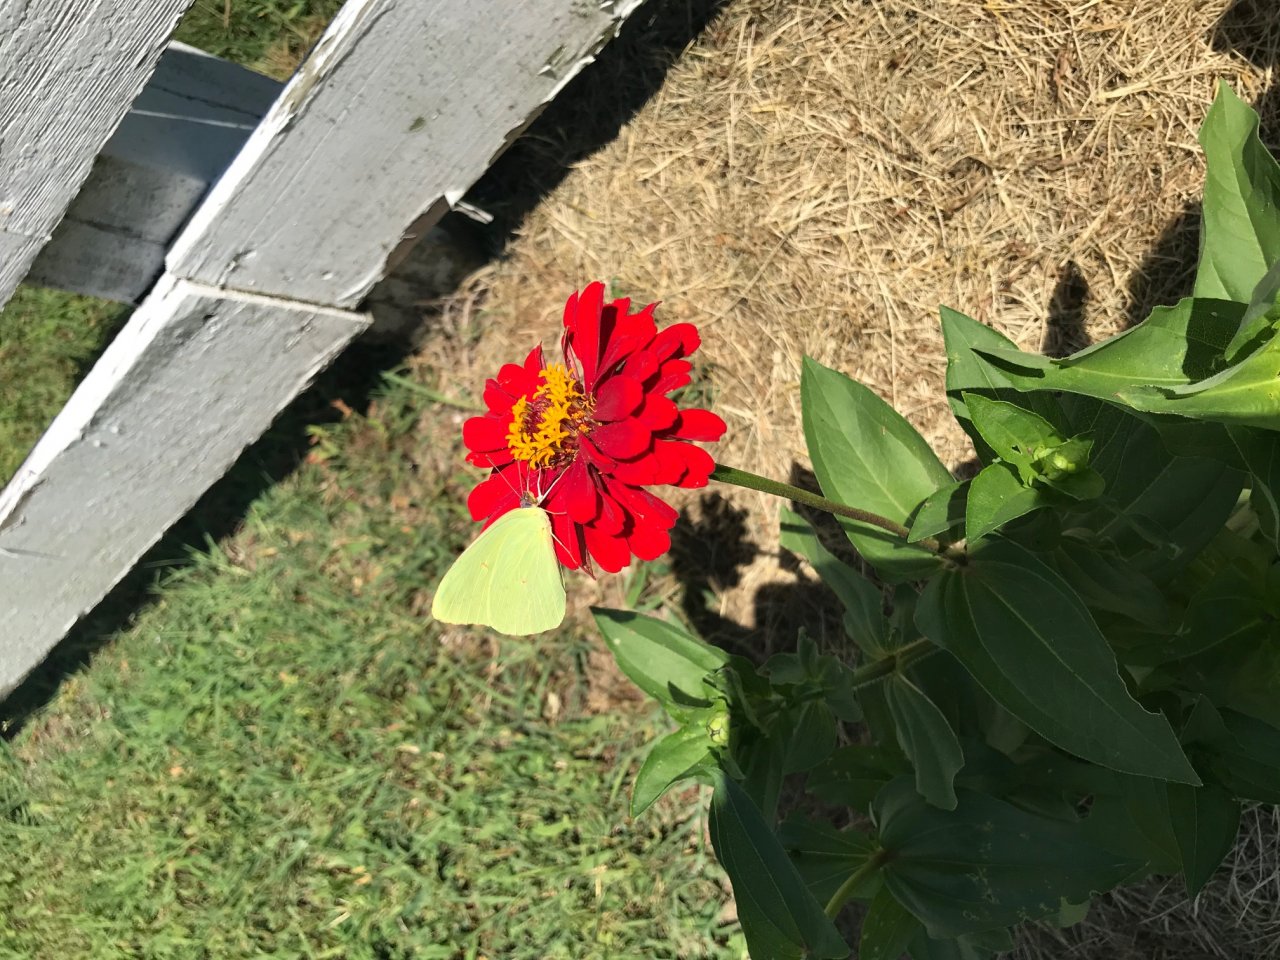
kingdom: Animalia
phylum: Arthropoda
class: Insecta
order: Lepidoptera
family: Pieridae
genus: Phoebis
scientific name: Phoebis sennae
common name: Cloudless Sulphur
